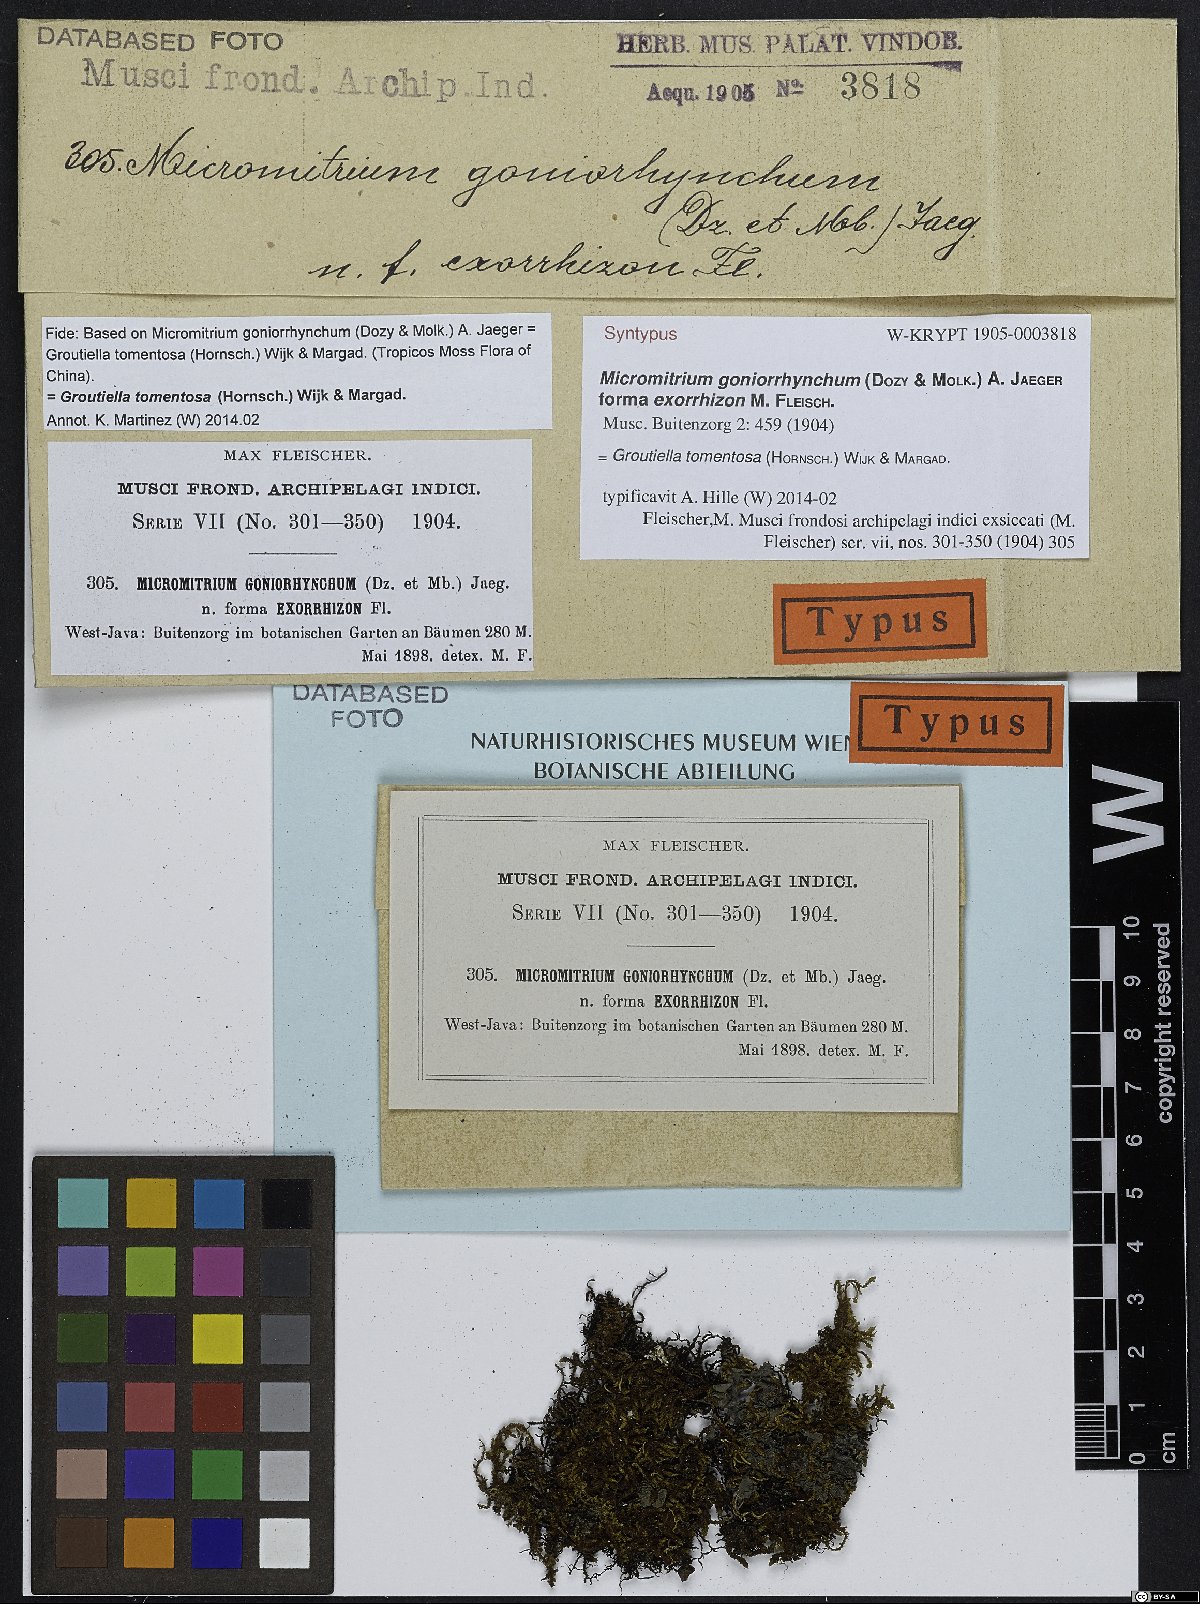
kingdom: Plantae
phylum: Bryophyta
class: Bryopsida
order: Orthotrichales
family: Orthotrichaceae
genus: Groutiella
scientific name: Groutiella tomentosa
